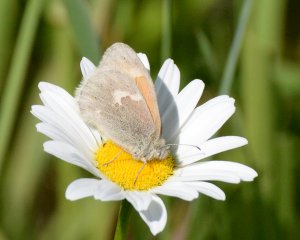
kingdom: Animalia
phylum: Arthropoda
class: Insecta
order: Lepidoptera
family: Nymphalidae
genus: Coenonympha
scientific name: Coenonympha tullia
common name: Large Heath
